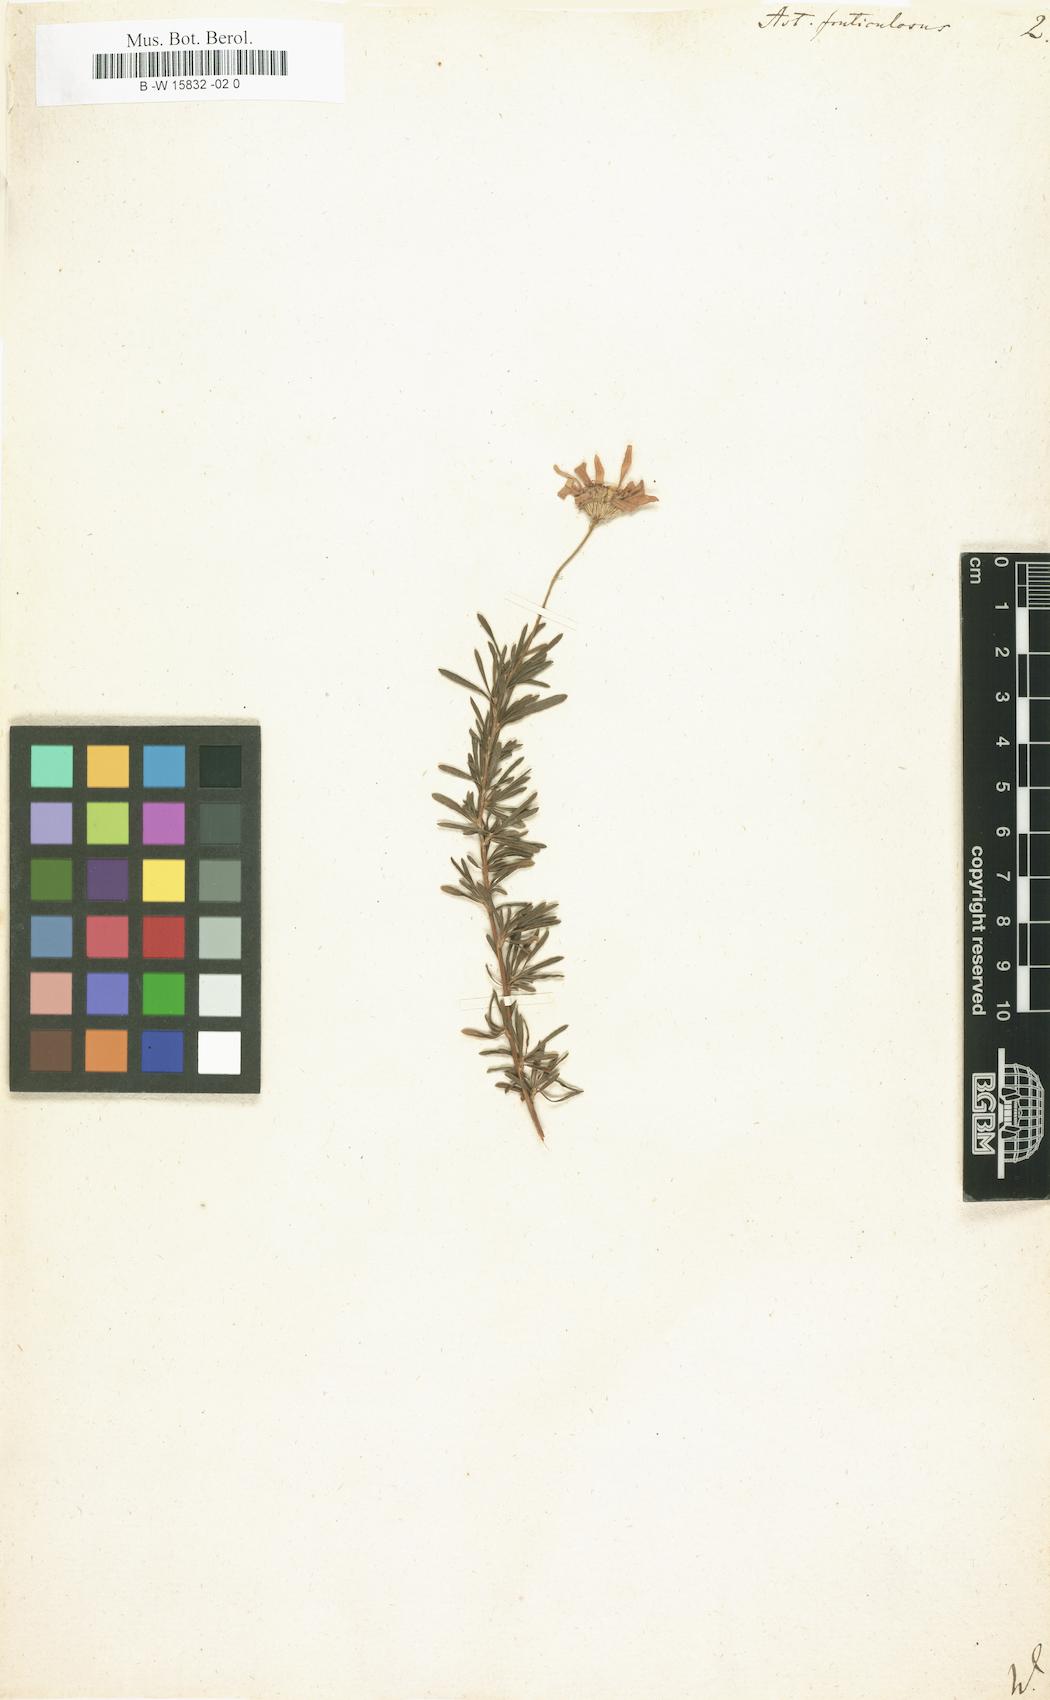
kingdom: Plantae
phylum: Tracheophyta
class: Magnoliopsida
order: Asterales
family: Asteraceae
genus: Aster
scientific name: Aster fruticulosus
